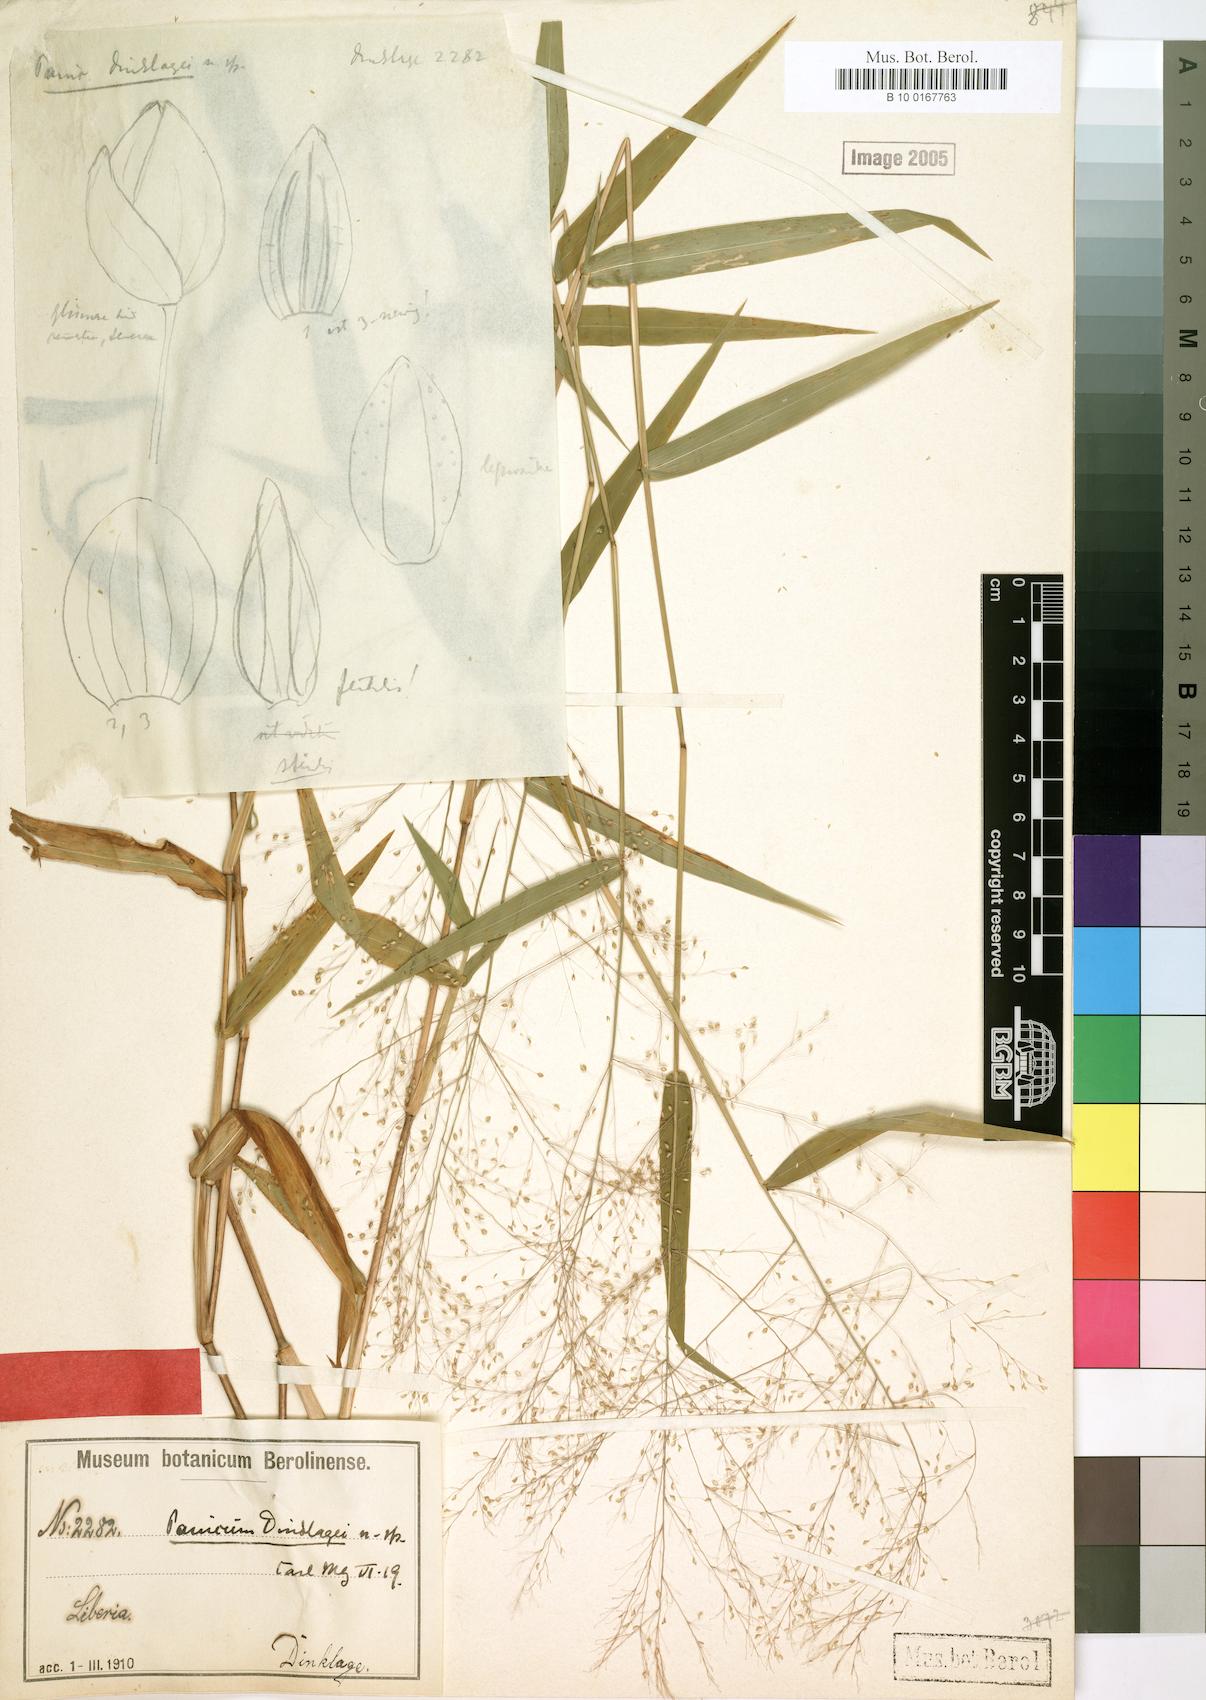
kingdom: Plantae
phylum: Tracheophyta
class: Liliopsida
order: Poales
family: Poaceae
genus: Trichanthecium
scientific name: Trichanthecium dinklagei
